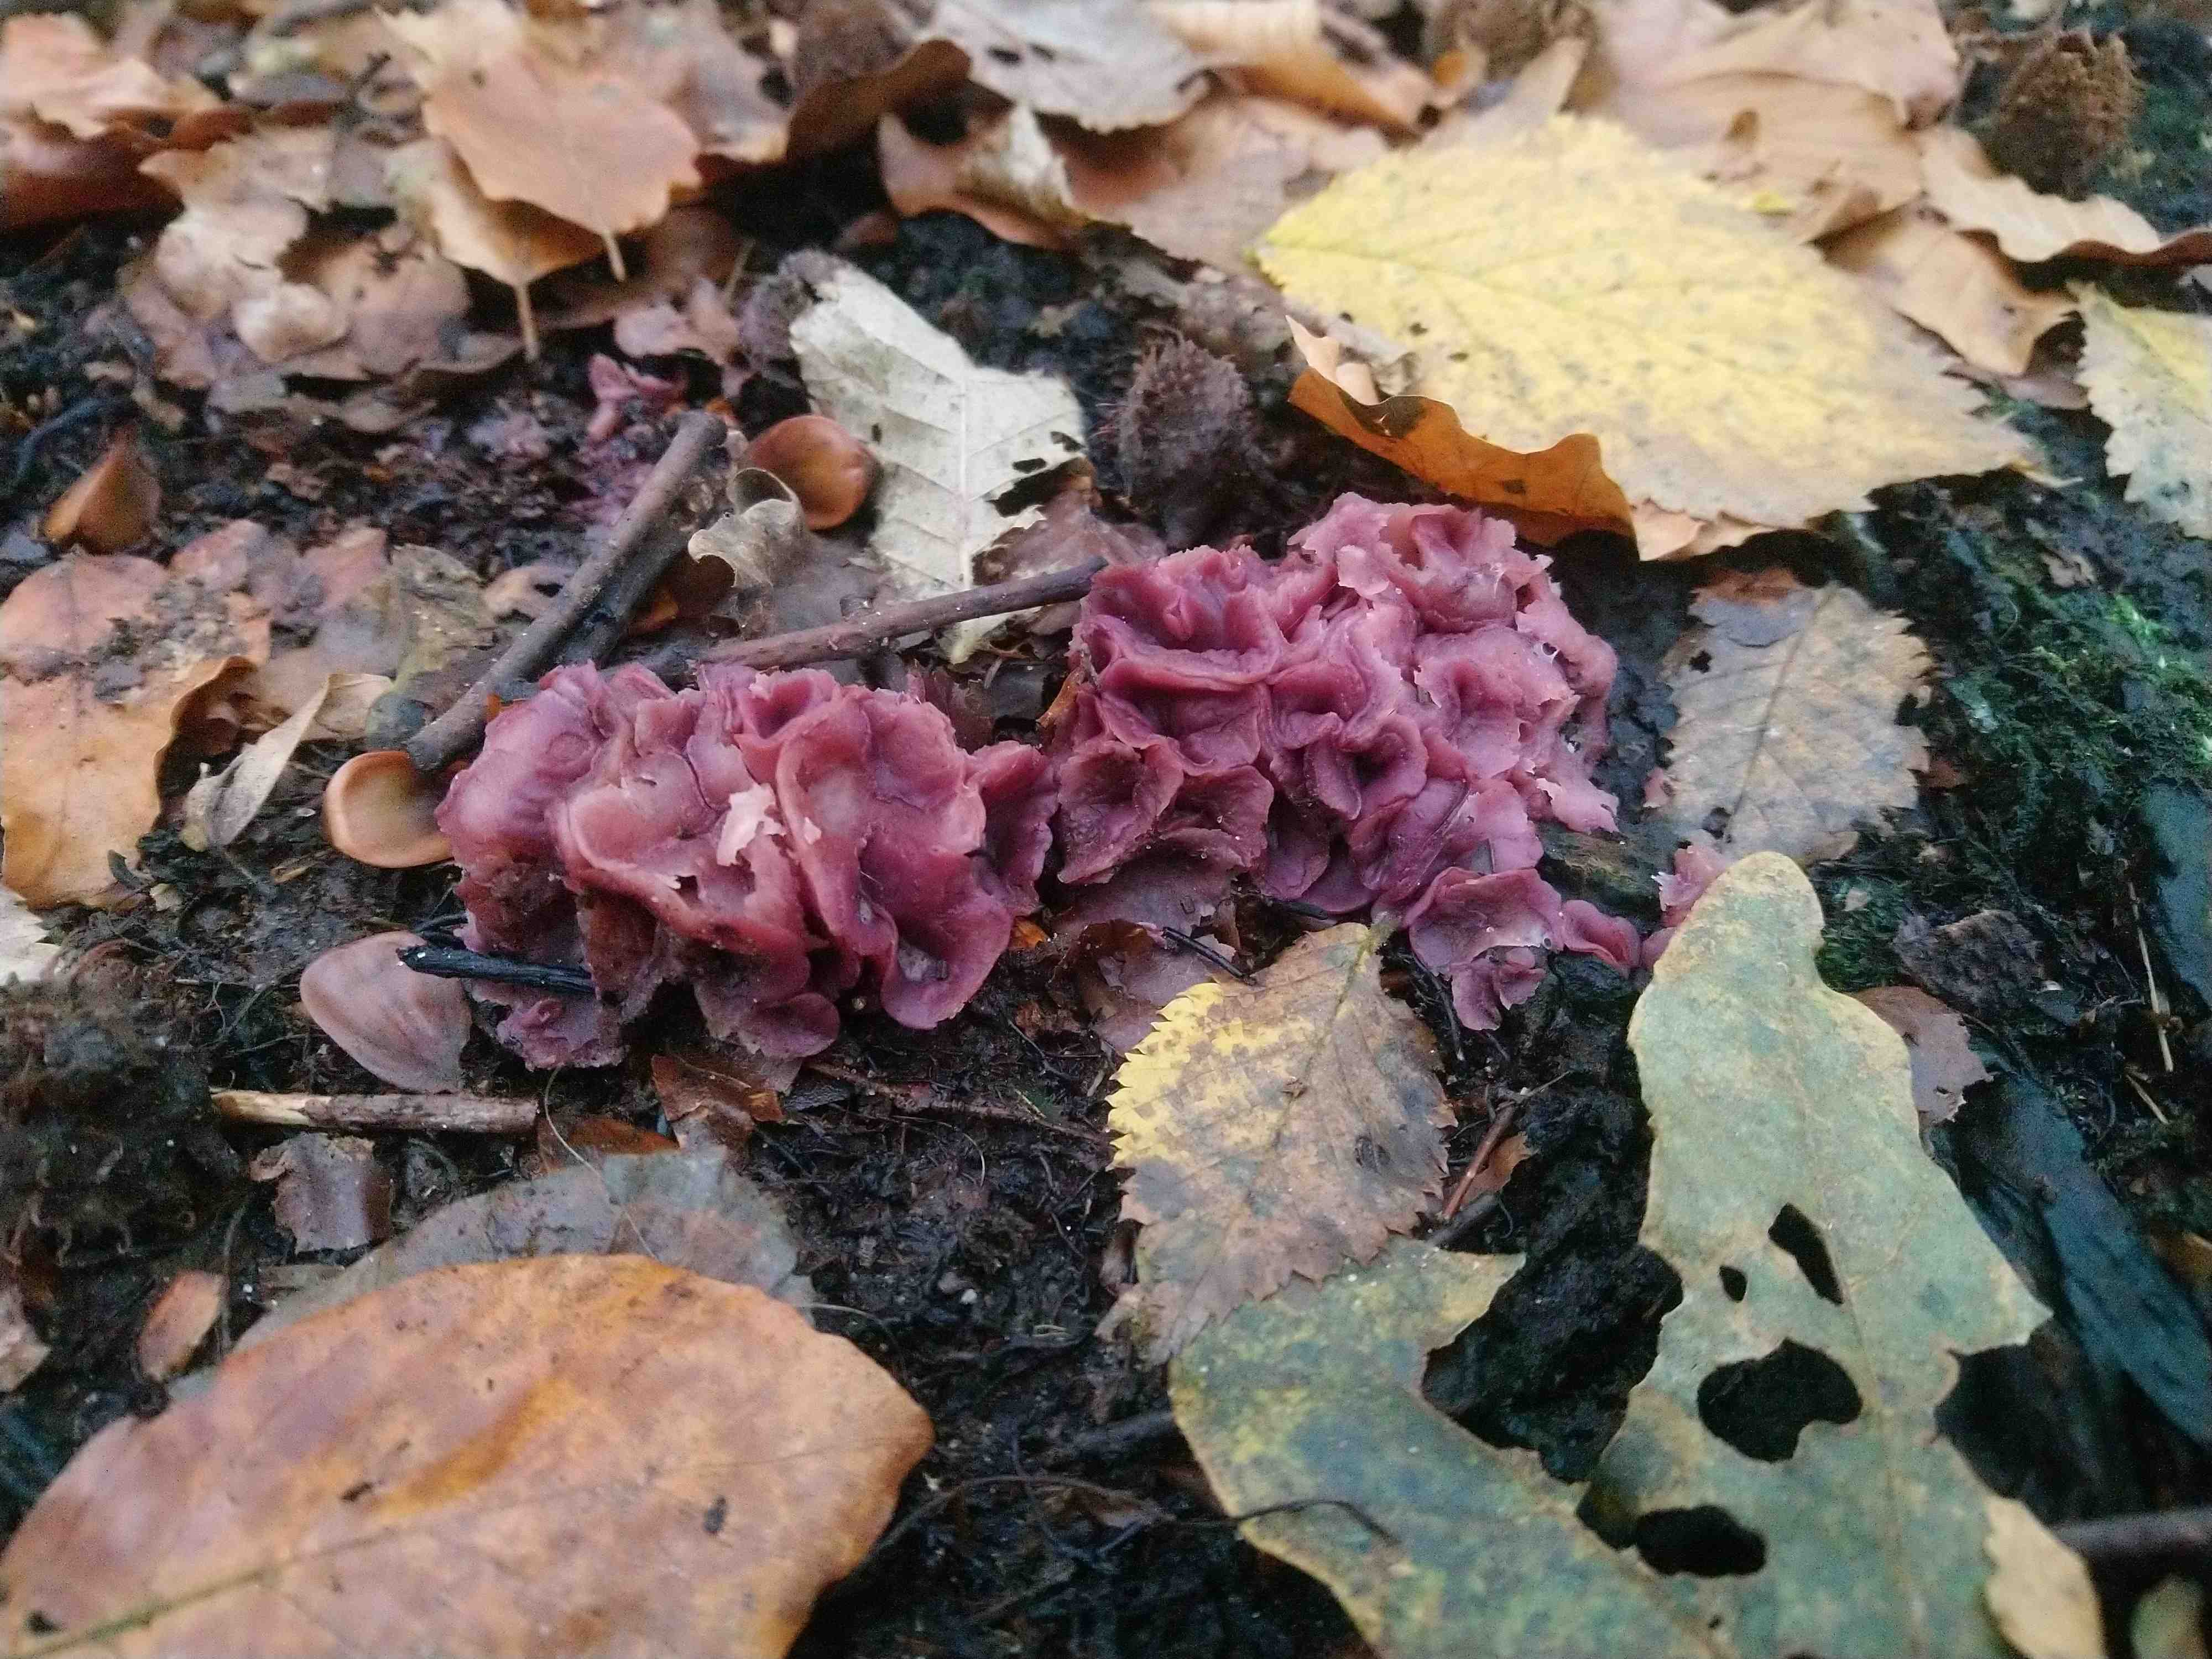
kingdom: Fungi
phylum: Ascomycota
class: Leotiomycetes
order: Helotiales
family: Gelatinodiscaceae
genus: Ascocoryne
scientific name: Ascocoryne cylichnium
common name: stor sejskive
